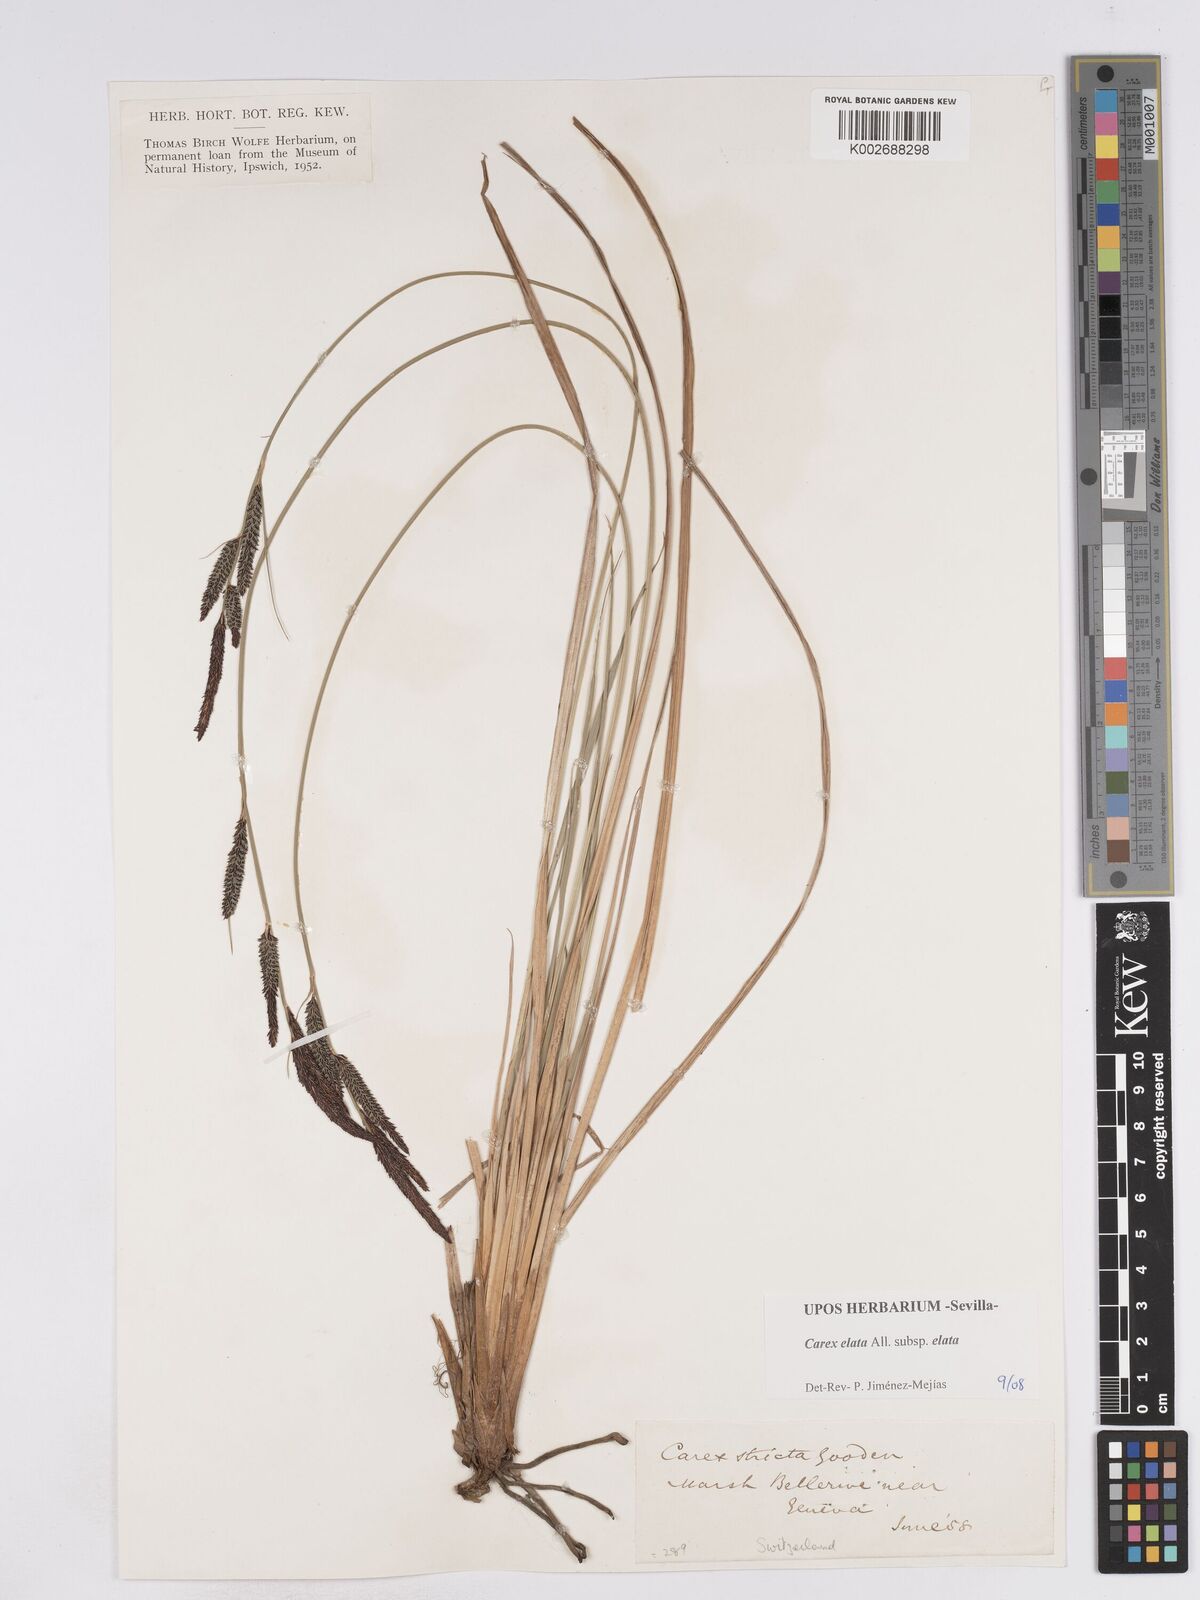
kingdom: Plantae
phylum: Tracheophyta
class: Liliopsida
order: Poales
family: Cyperaceae
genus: Carex
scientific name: Carex elata
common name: Tufted sedge
